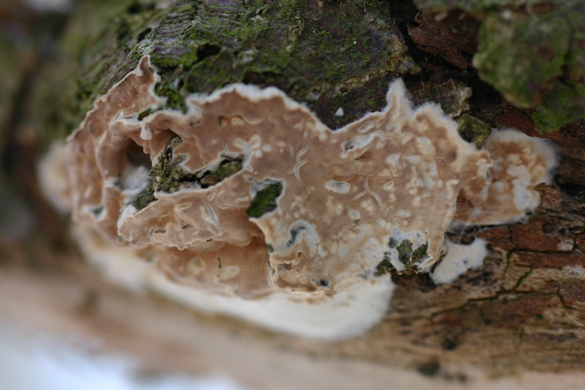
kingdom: Fungi
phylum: Basidiomycota
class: Agaricomycetes
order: Agaricales
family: Physalacriaceae
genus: Cylindrobasidium
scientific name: Cylindrobasidium evolvens
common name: sprækkehinde
